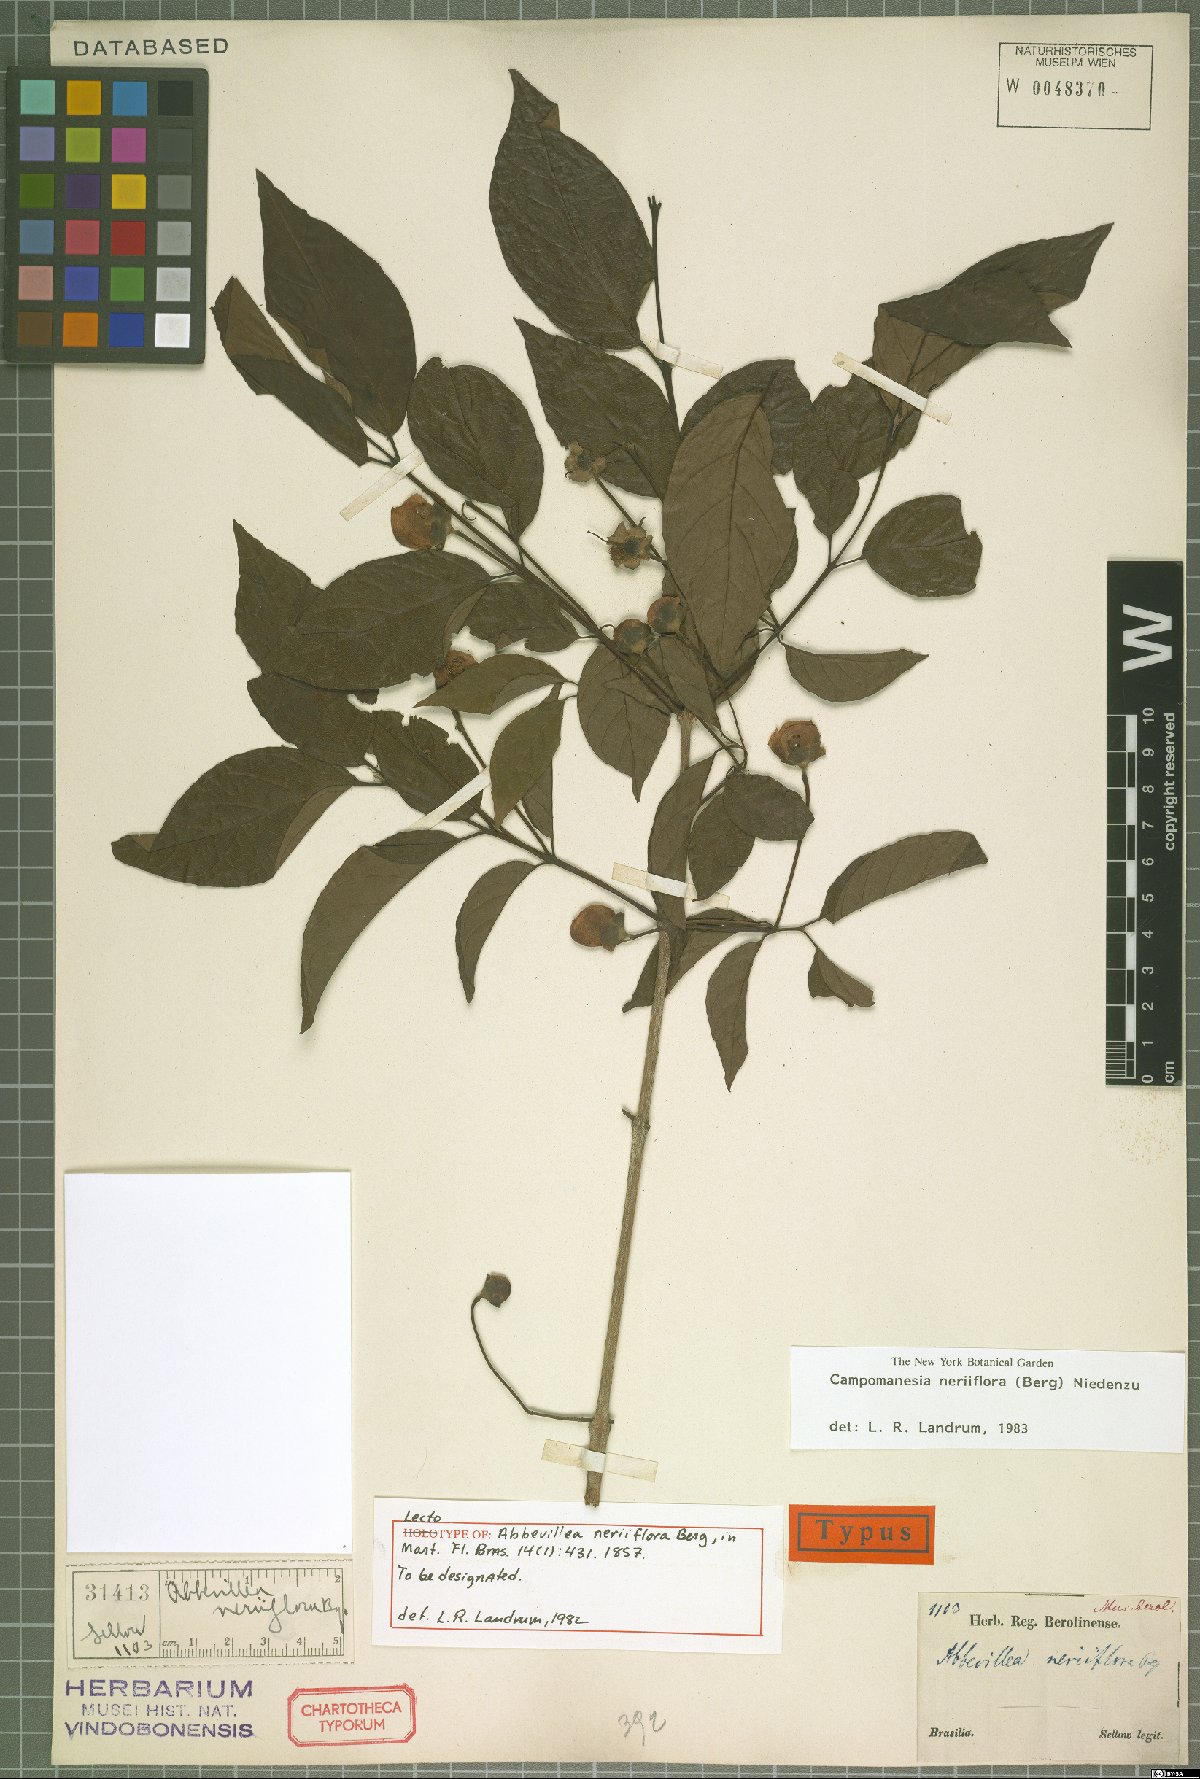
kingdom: Plantae
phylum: Tracheophyta
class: Magnoliopsida
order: Myrtales
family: Myrtaceae
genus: Campomanesia
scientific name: Campomanesia neriiflora
